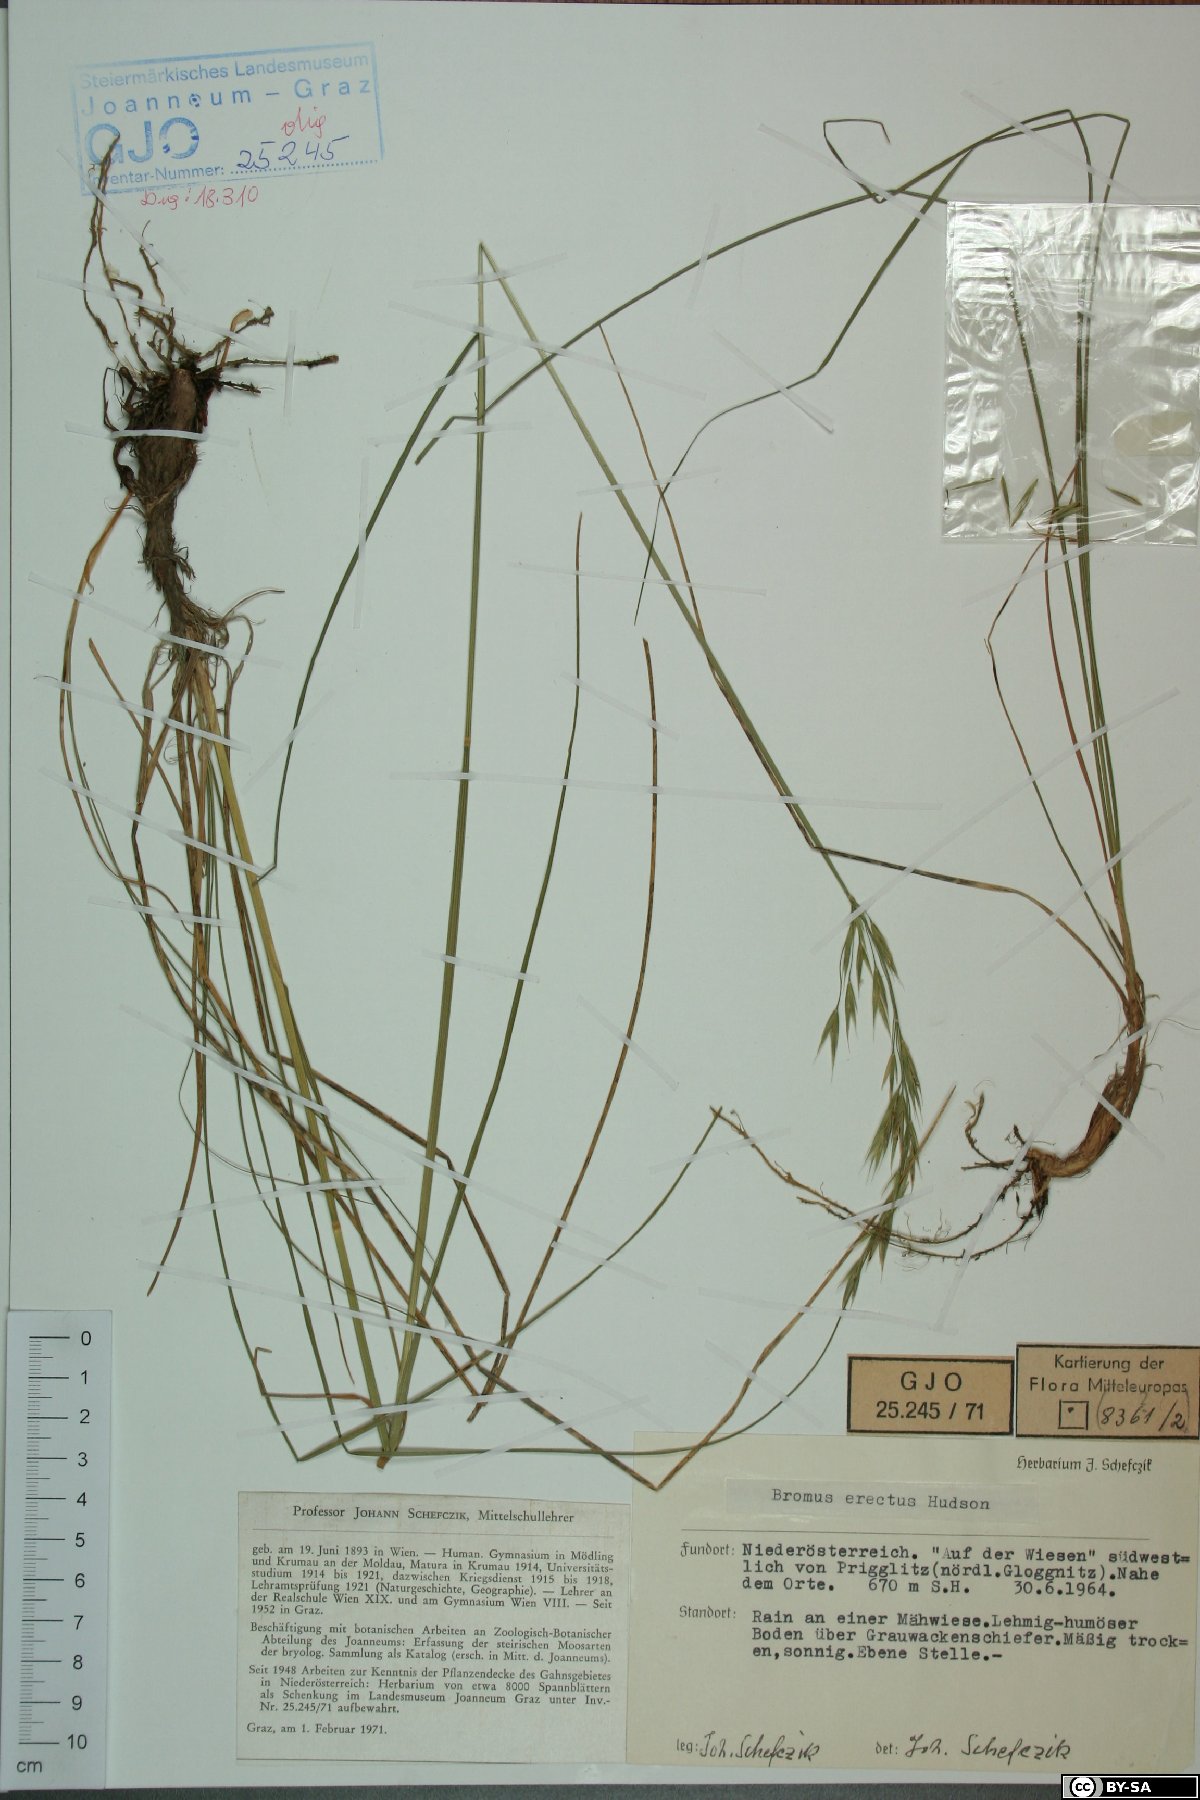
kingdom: Plantae
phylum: Tracheophyta
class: Liliopsida
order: Poales
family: Poaceae
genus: Bromus
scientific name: Bromus erectus
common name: Erect brome
